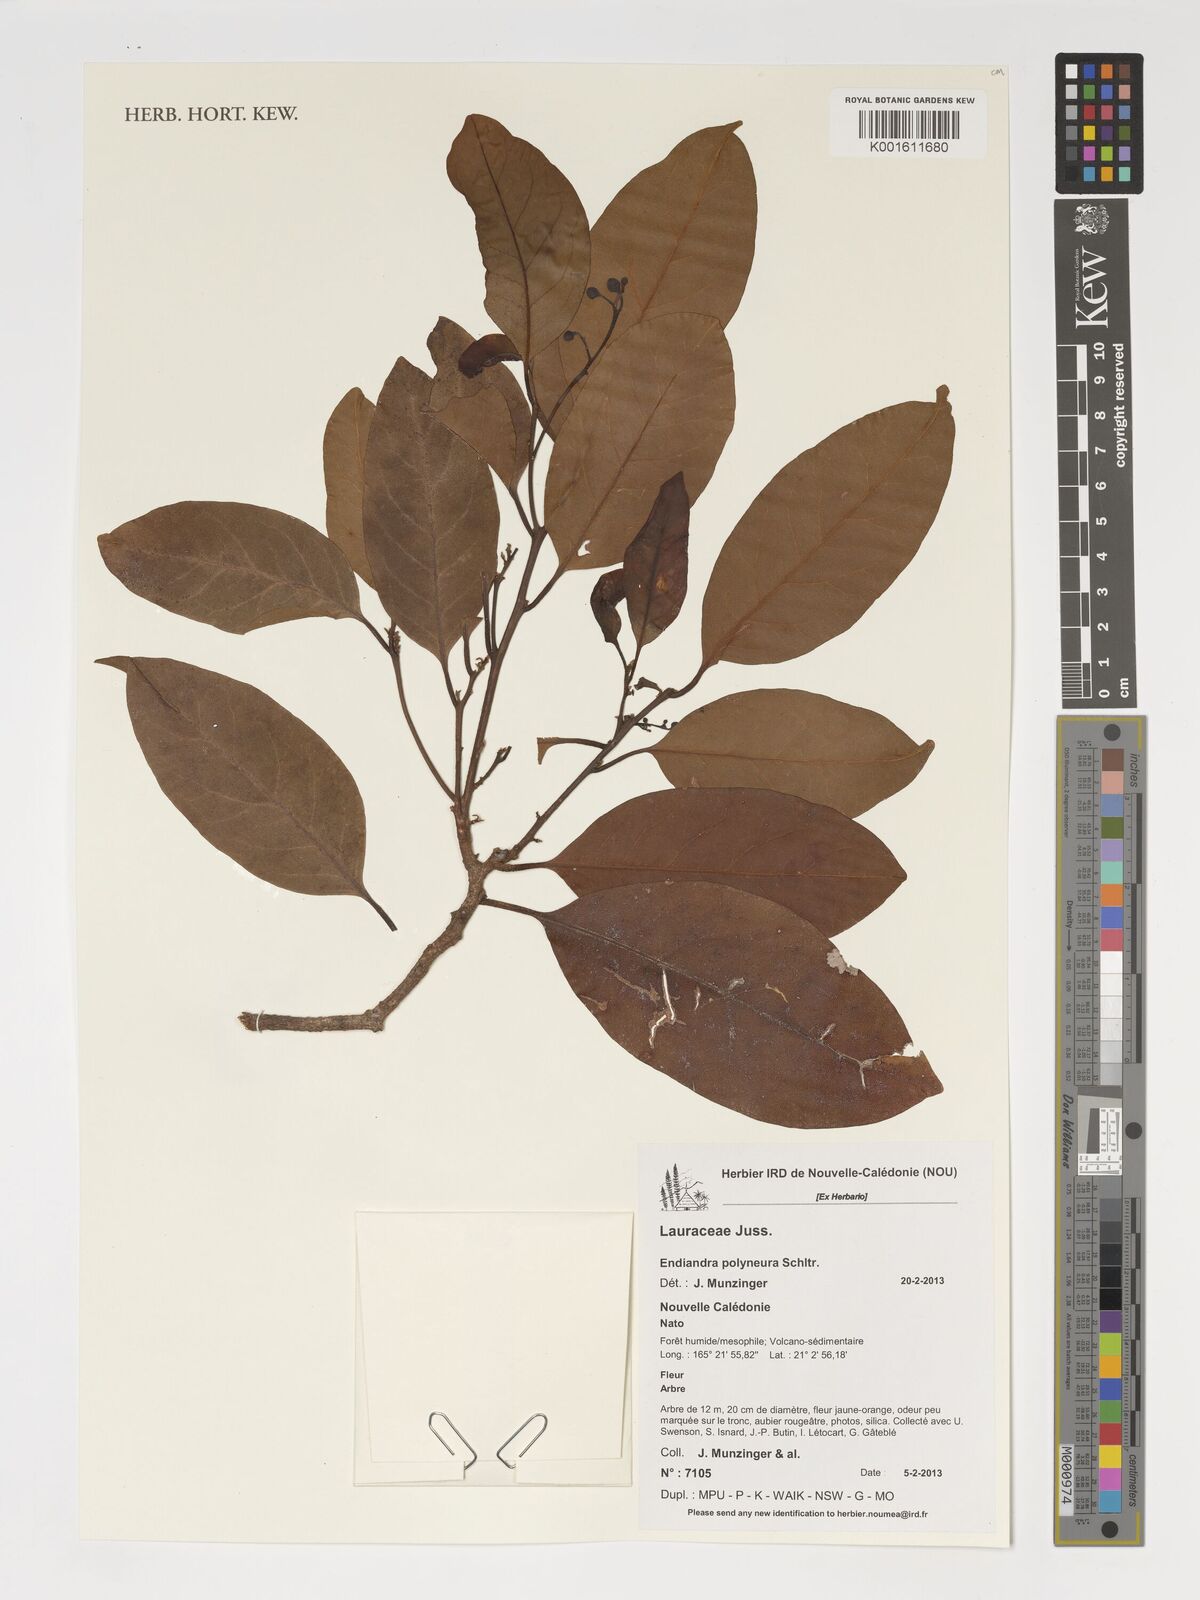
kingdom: Plantae
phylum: Tracheophyta
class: Magnoliopsida
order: Laurales
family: Lauraceae
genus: Endiandra
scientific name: Endiandra polyneura
